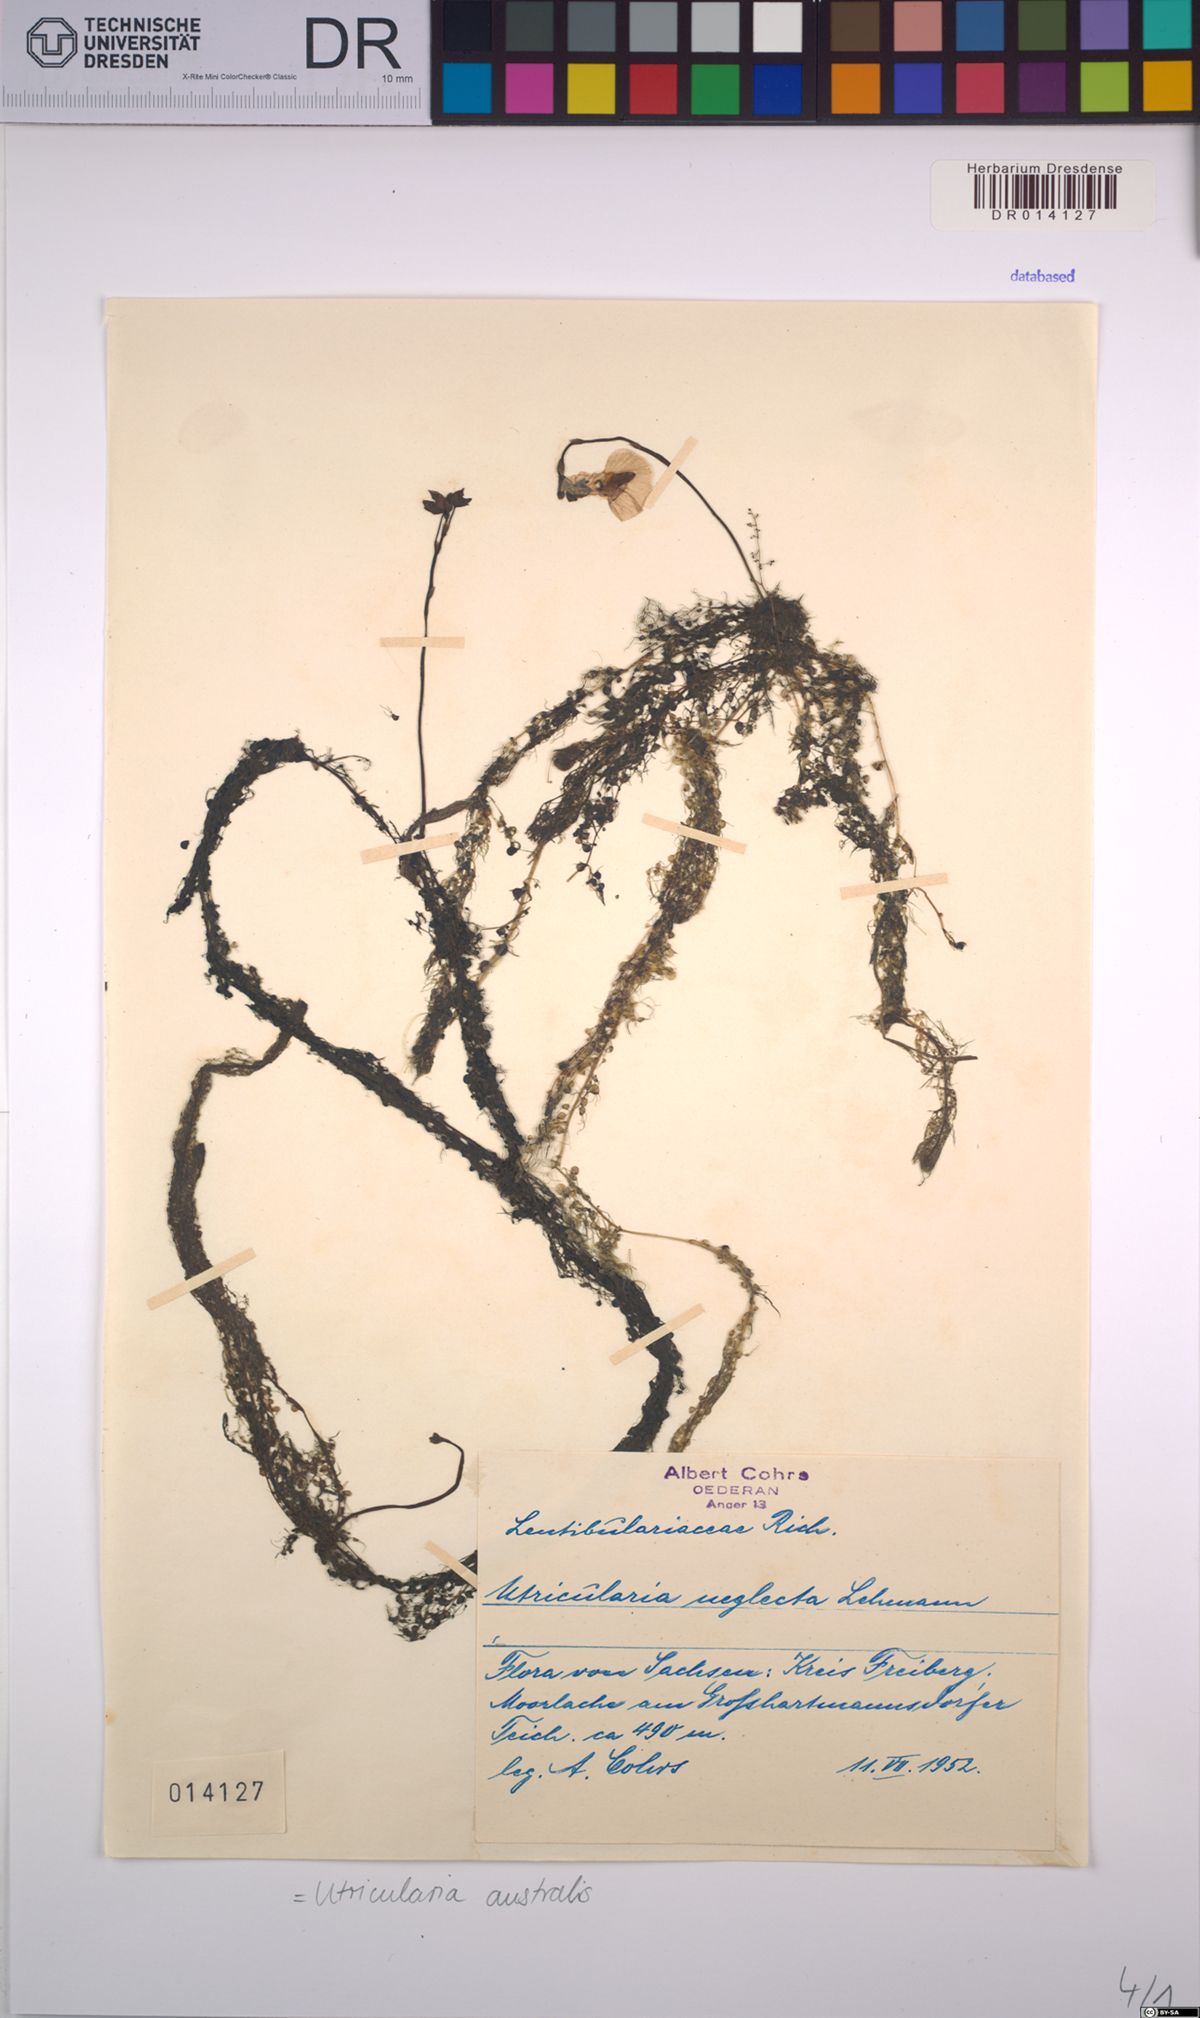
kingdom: Plantae
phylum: Tracheophyta
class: Magnoliopsida
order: Lamiales
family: Lentibulariaceae
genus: Utricularia
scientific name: Utricularia australis
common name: Bladderwort
